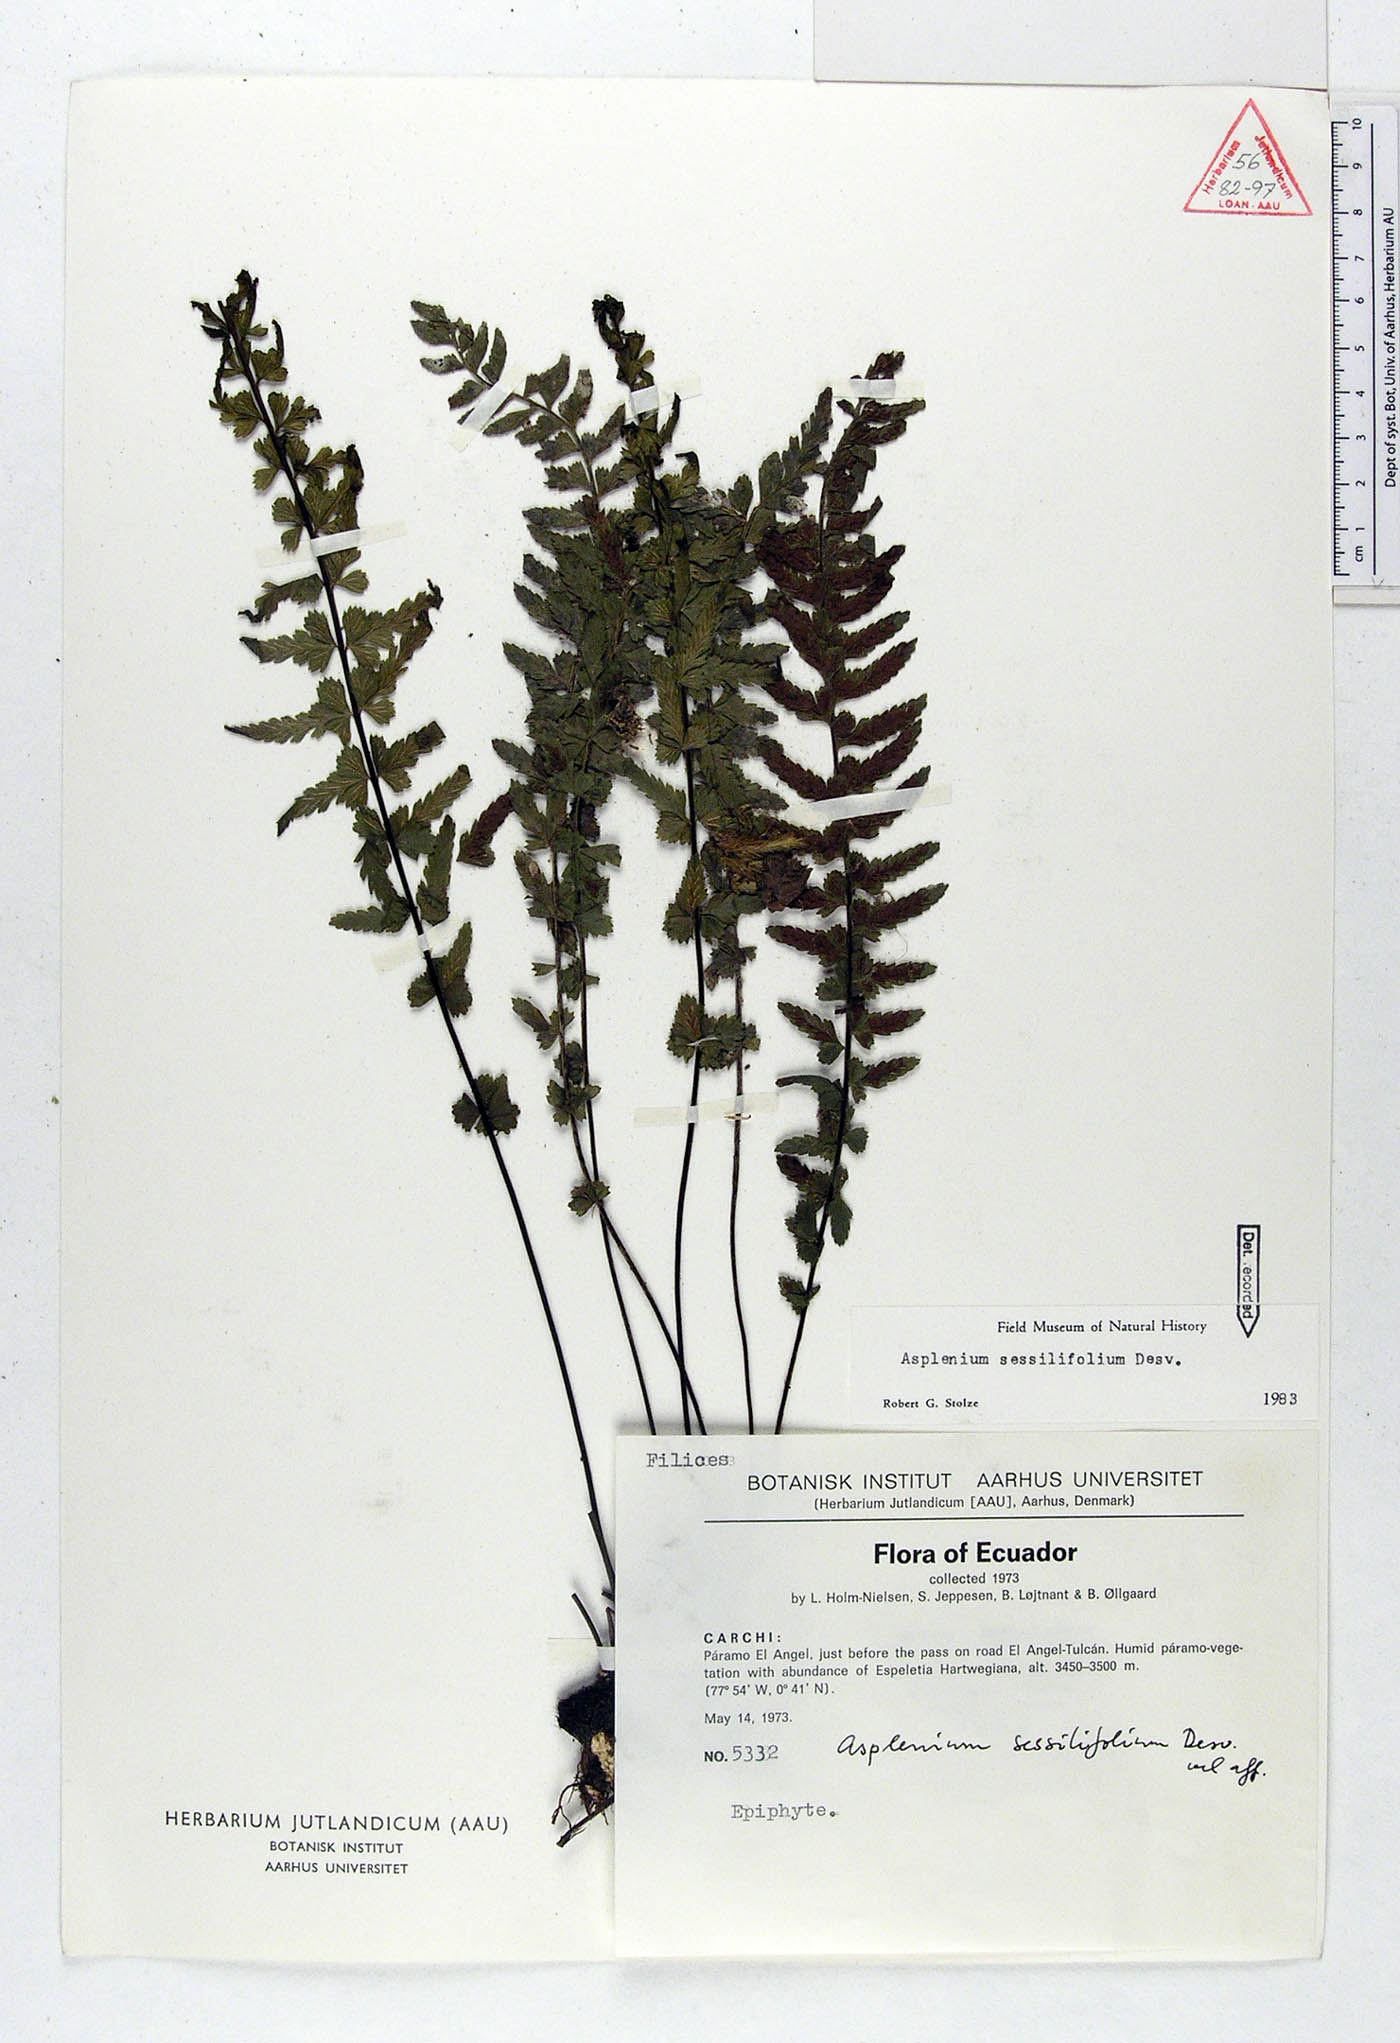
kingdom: Plantae
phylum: Tracheophyta
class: Polypodiopsida
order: Polypodiales
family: Aspleniaceae
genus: Asplenium
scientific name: Asplenium sessilifolium
